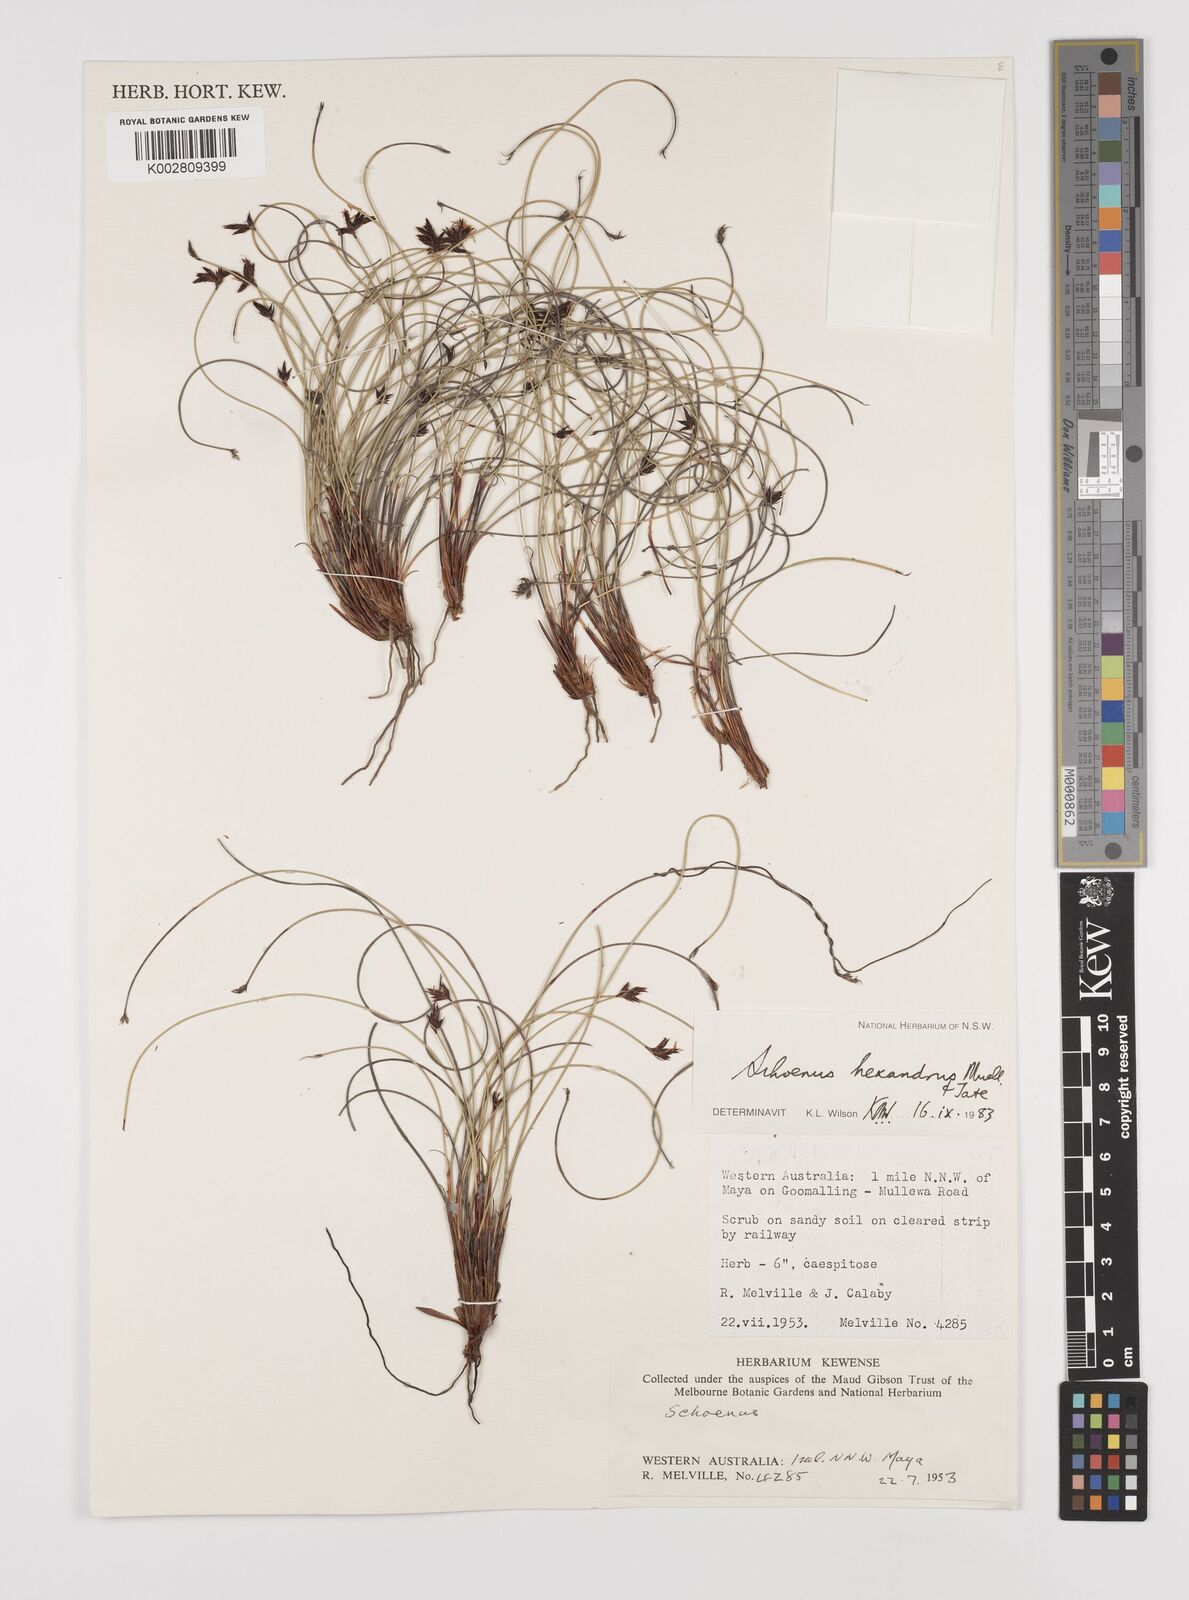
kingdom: Plantae
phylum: Tracheophyta
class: Liliopsida
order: Poales
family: Cyperaceae
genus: Schoenus
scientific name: Schoenus hexander
